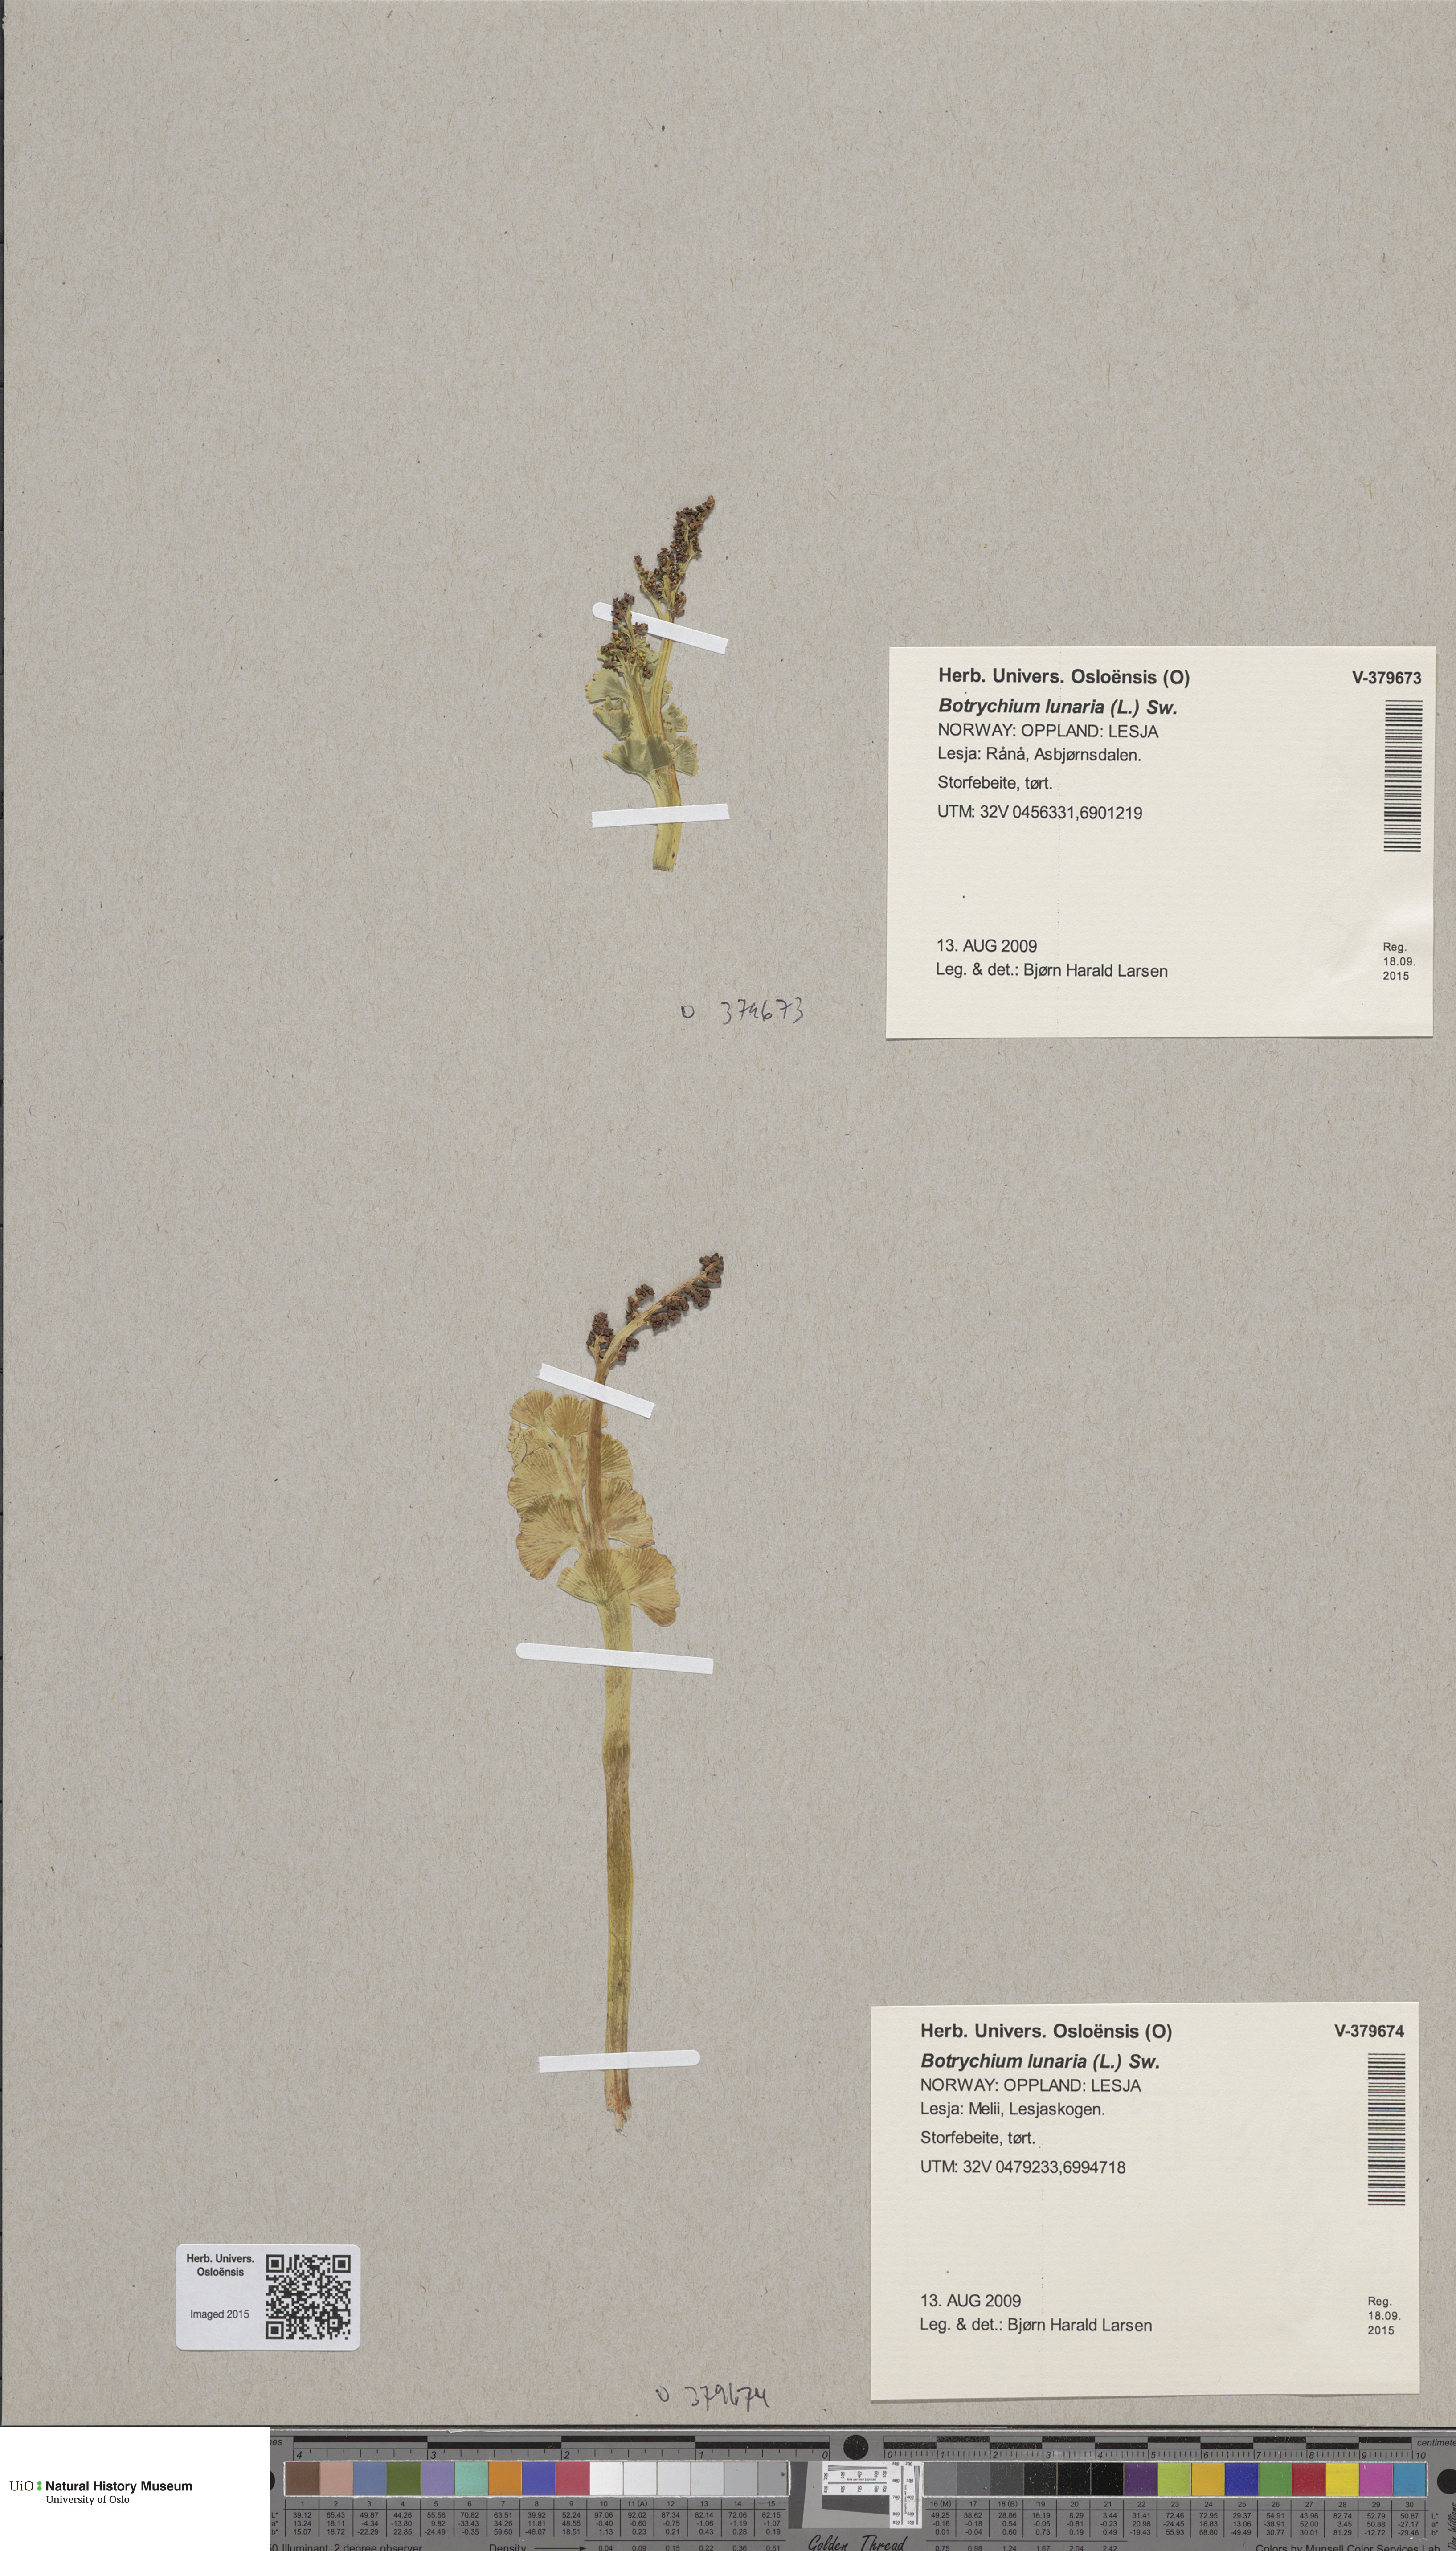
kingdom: Plantae
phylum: Tracheophyta
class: Polypodiopsida
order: Ophioglossales
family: Ophioglossaceae
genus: Botrychium
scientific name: Botrychium lunaria
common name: Moonwort
